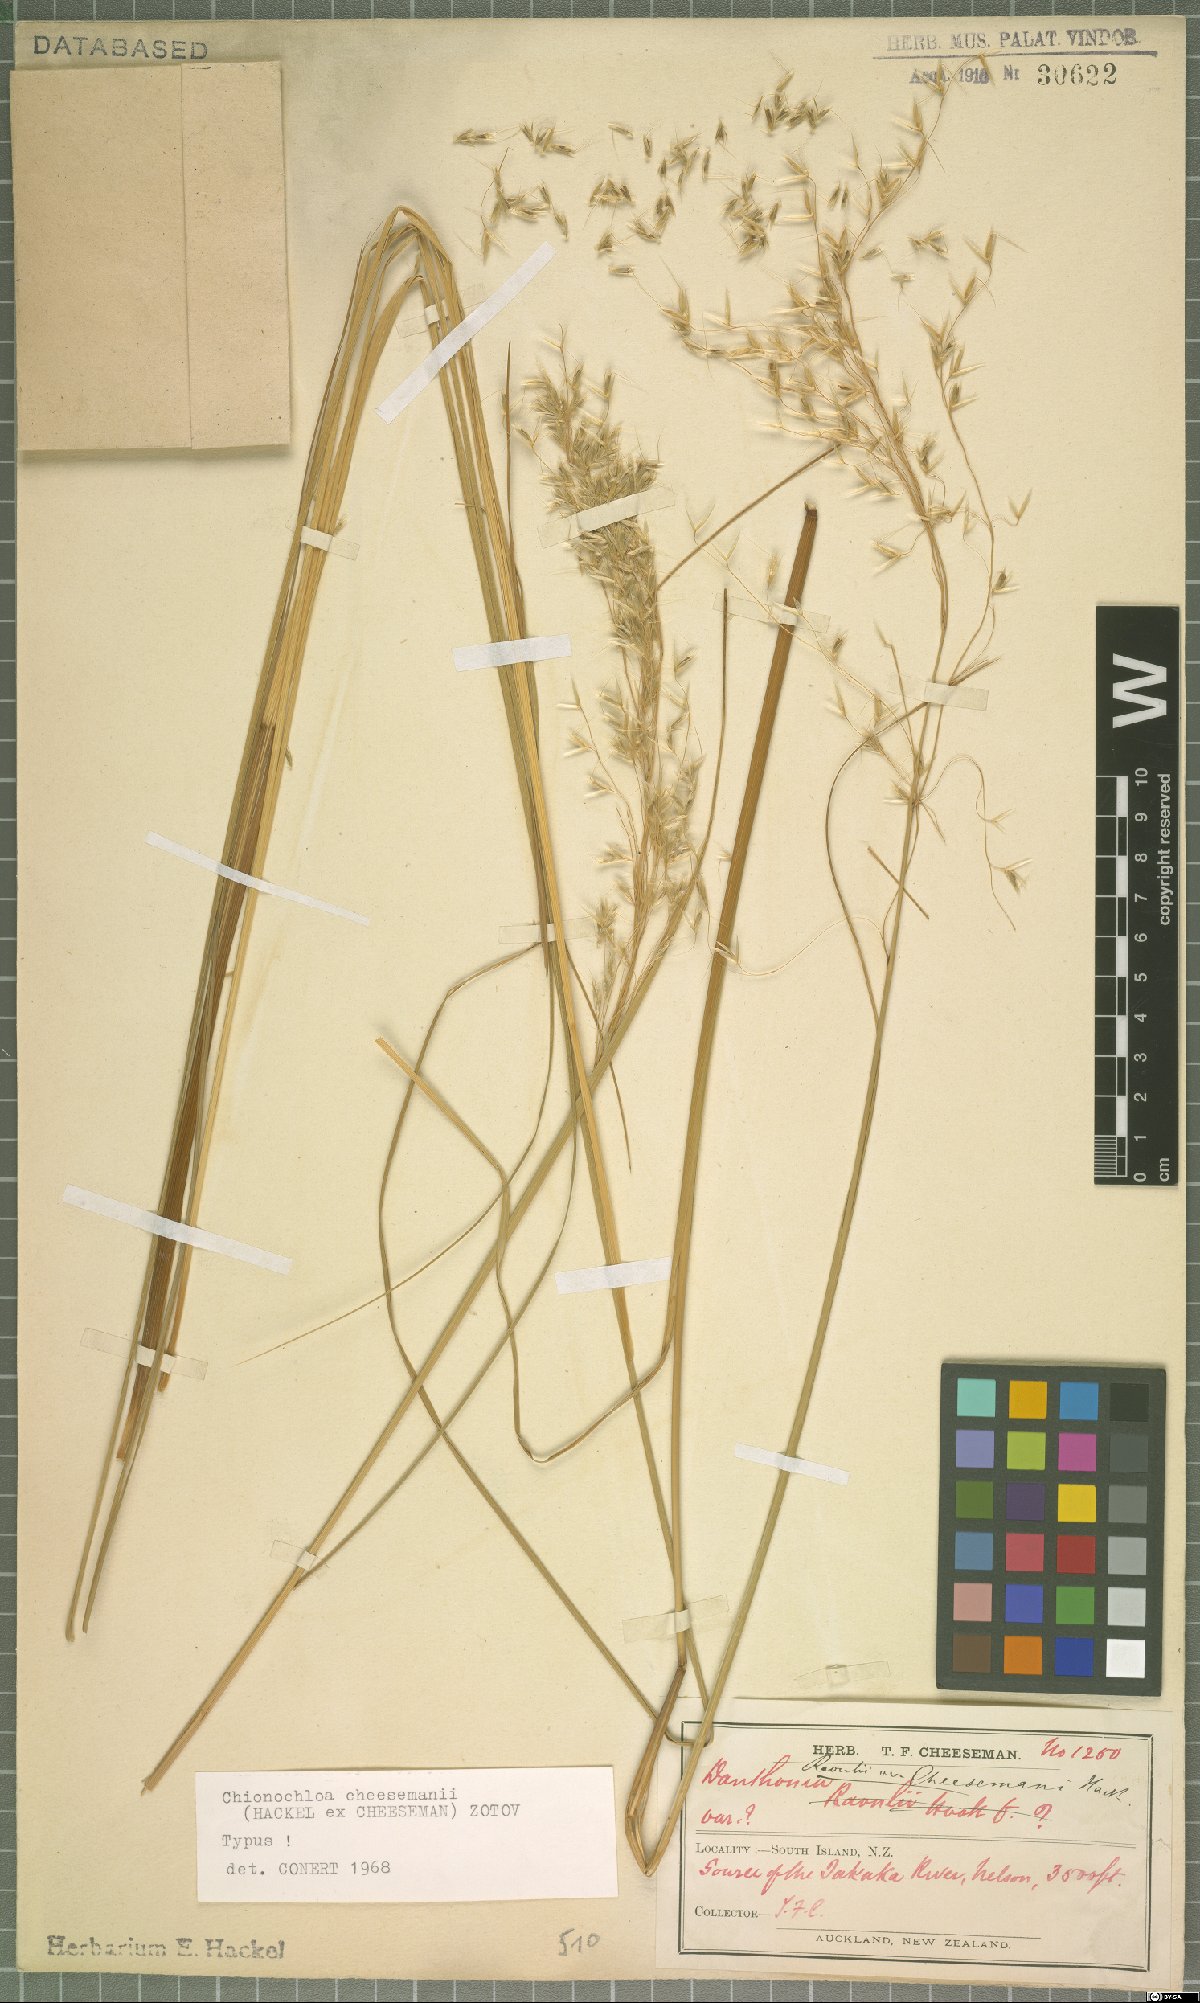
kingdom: Plantae
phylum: Tracheophyta
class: Liliopsida
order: Poales
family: Poaceae
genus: Chionochloa
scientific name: Chionochloa cheesemanii
